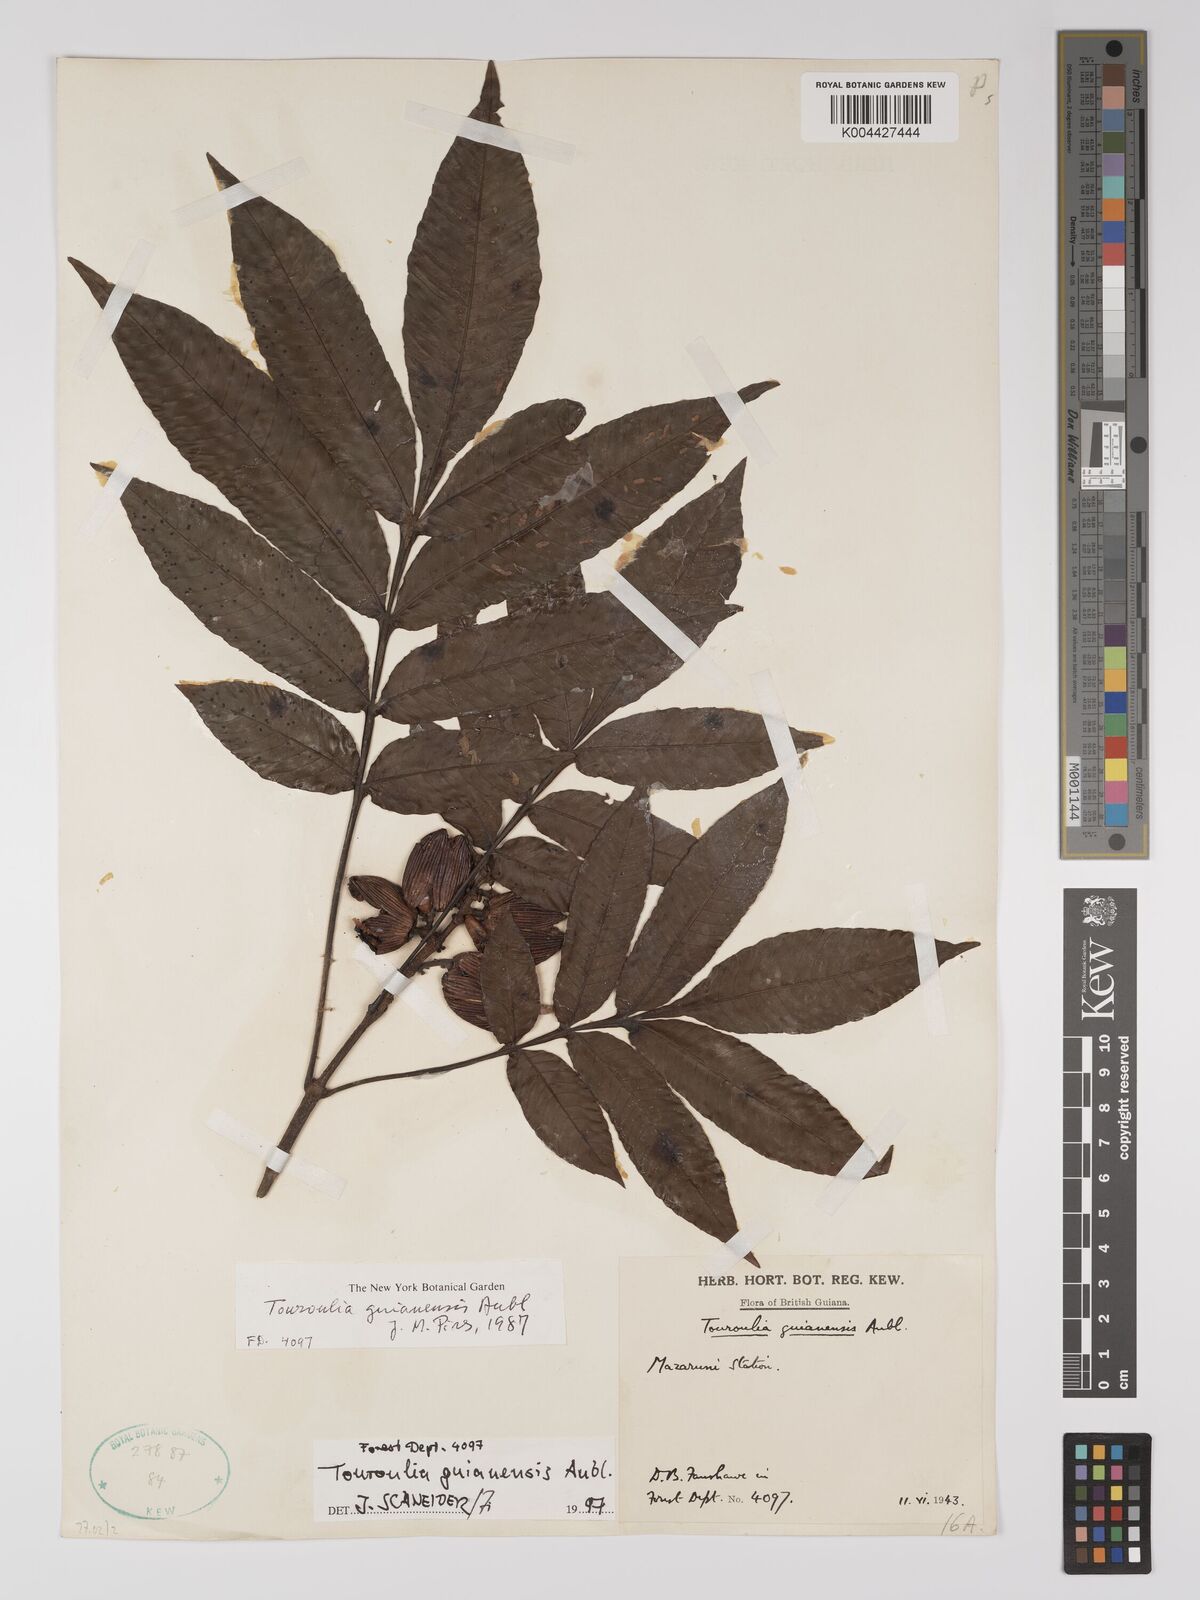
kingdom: Plantae
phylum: Tracheophyta
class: Magnoliopsida
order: Malpighiales
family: Quiinaceae
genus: Touroulia
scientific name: Touroulia guianensis
